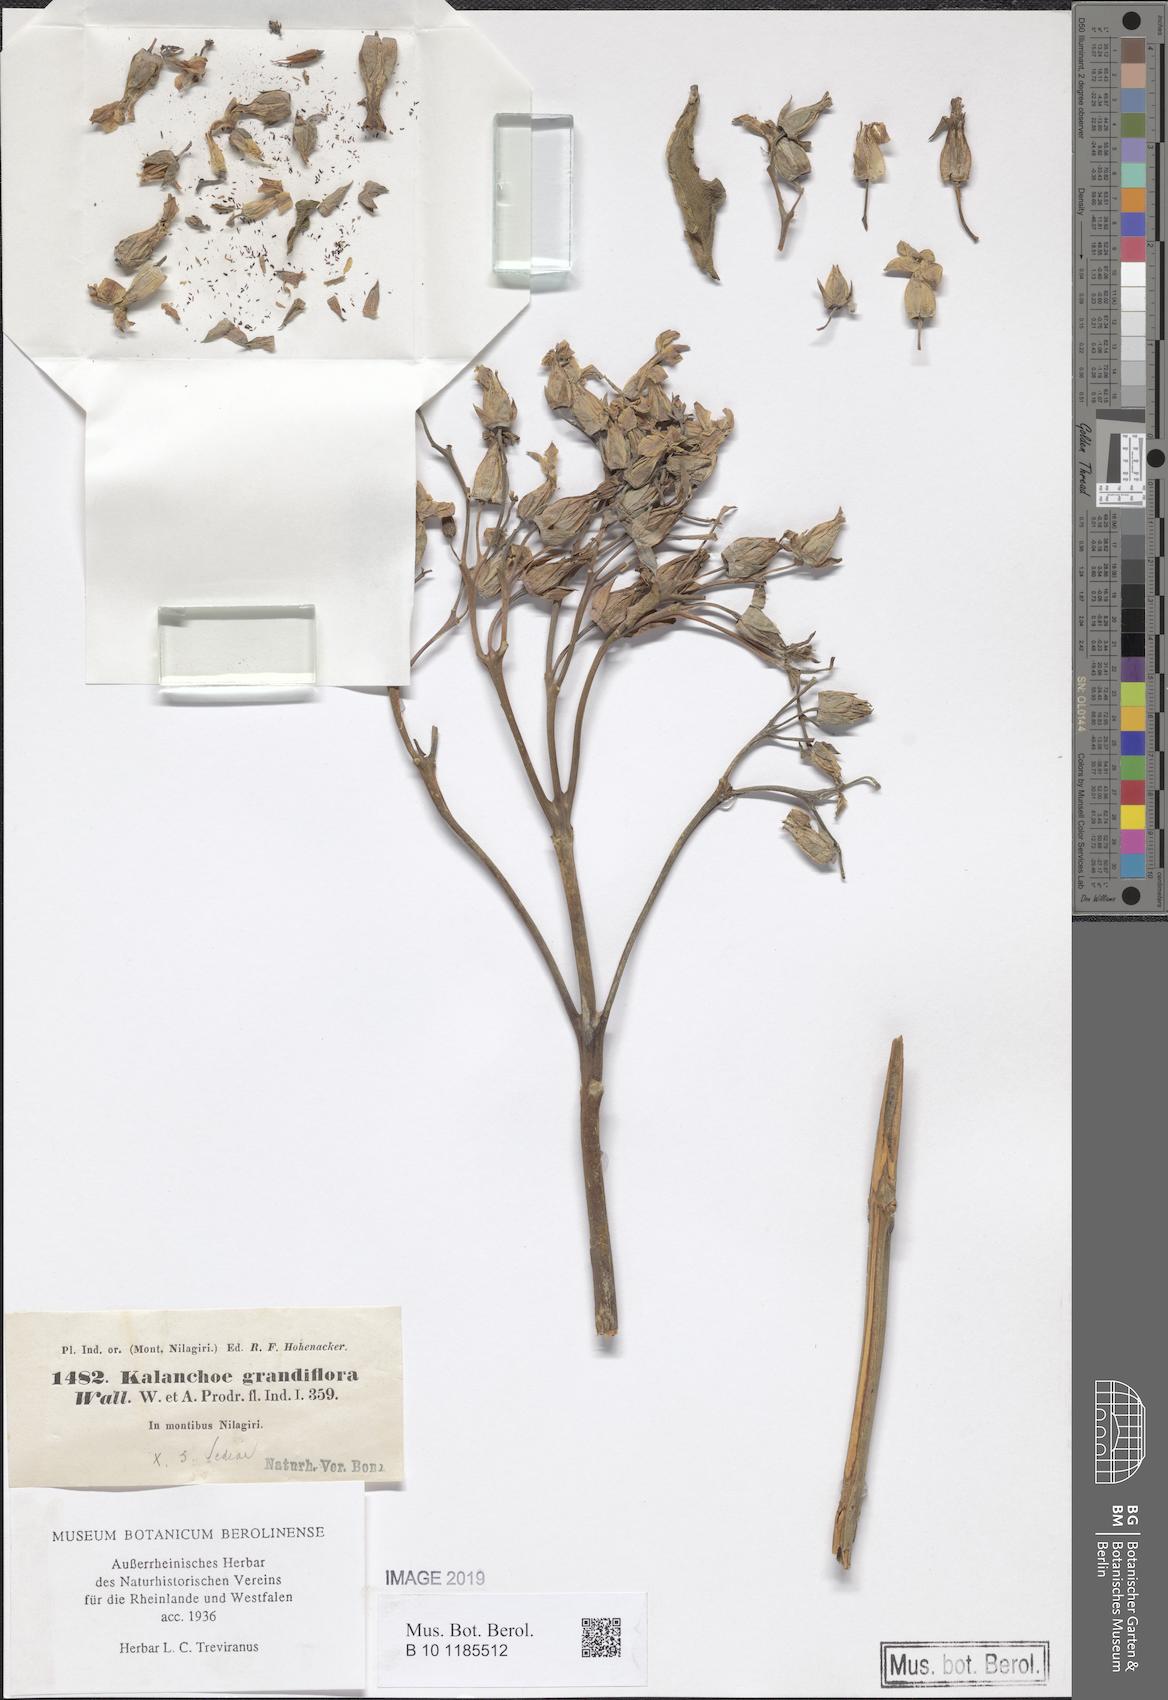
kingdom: Plantae
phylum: Tracheophyta
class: Magnoliopsida
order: Saxifragales
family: Crassulaceae
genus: Kalanchoe
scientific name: Kalanchoe grandiflora
